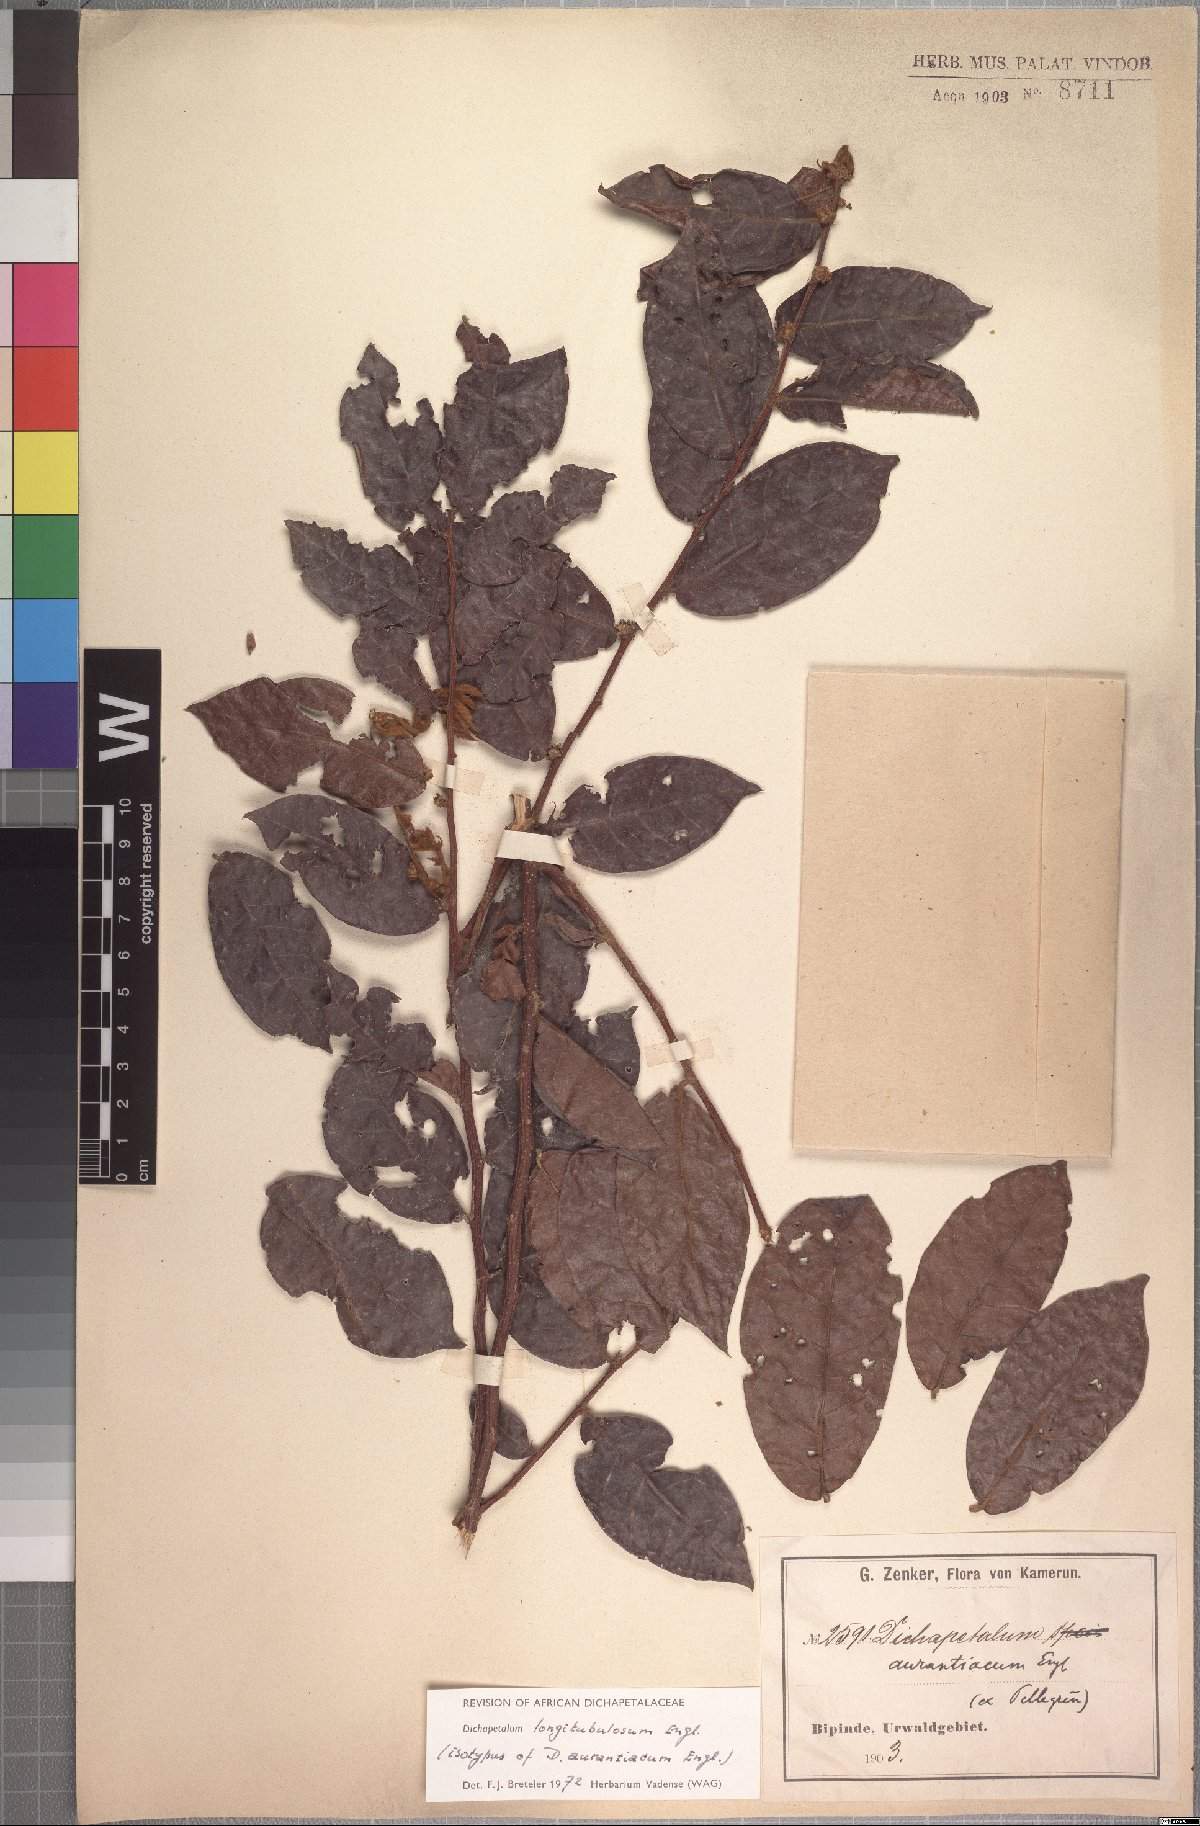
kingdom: Plantae
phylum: Tracheophyta
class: Magnoliopsida
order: Malpighiales
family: Dichapetalaceae
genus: Dichapetalum
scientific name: Dichapetalum heudelotii
